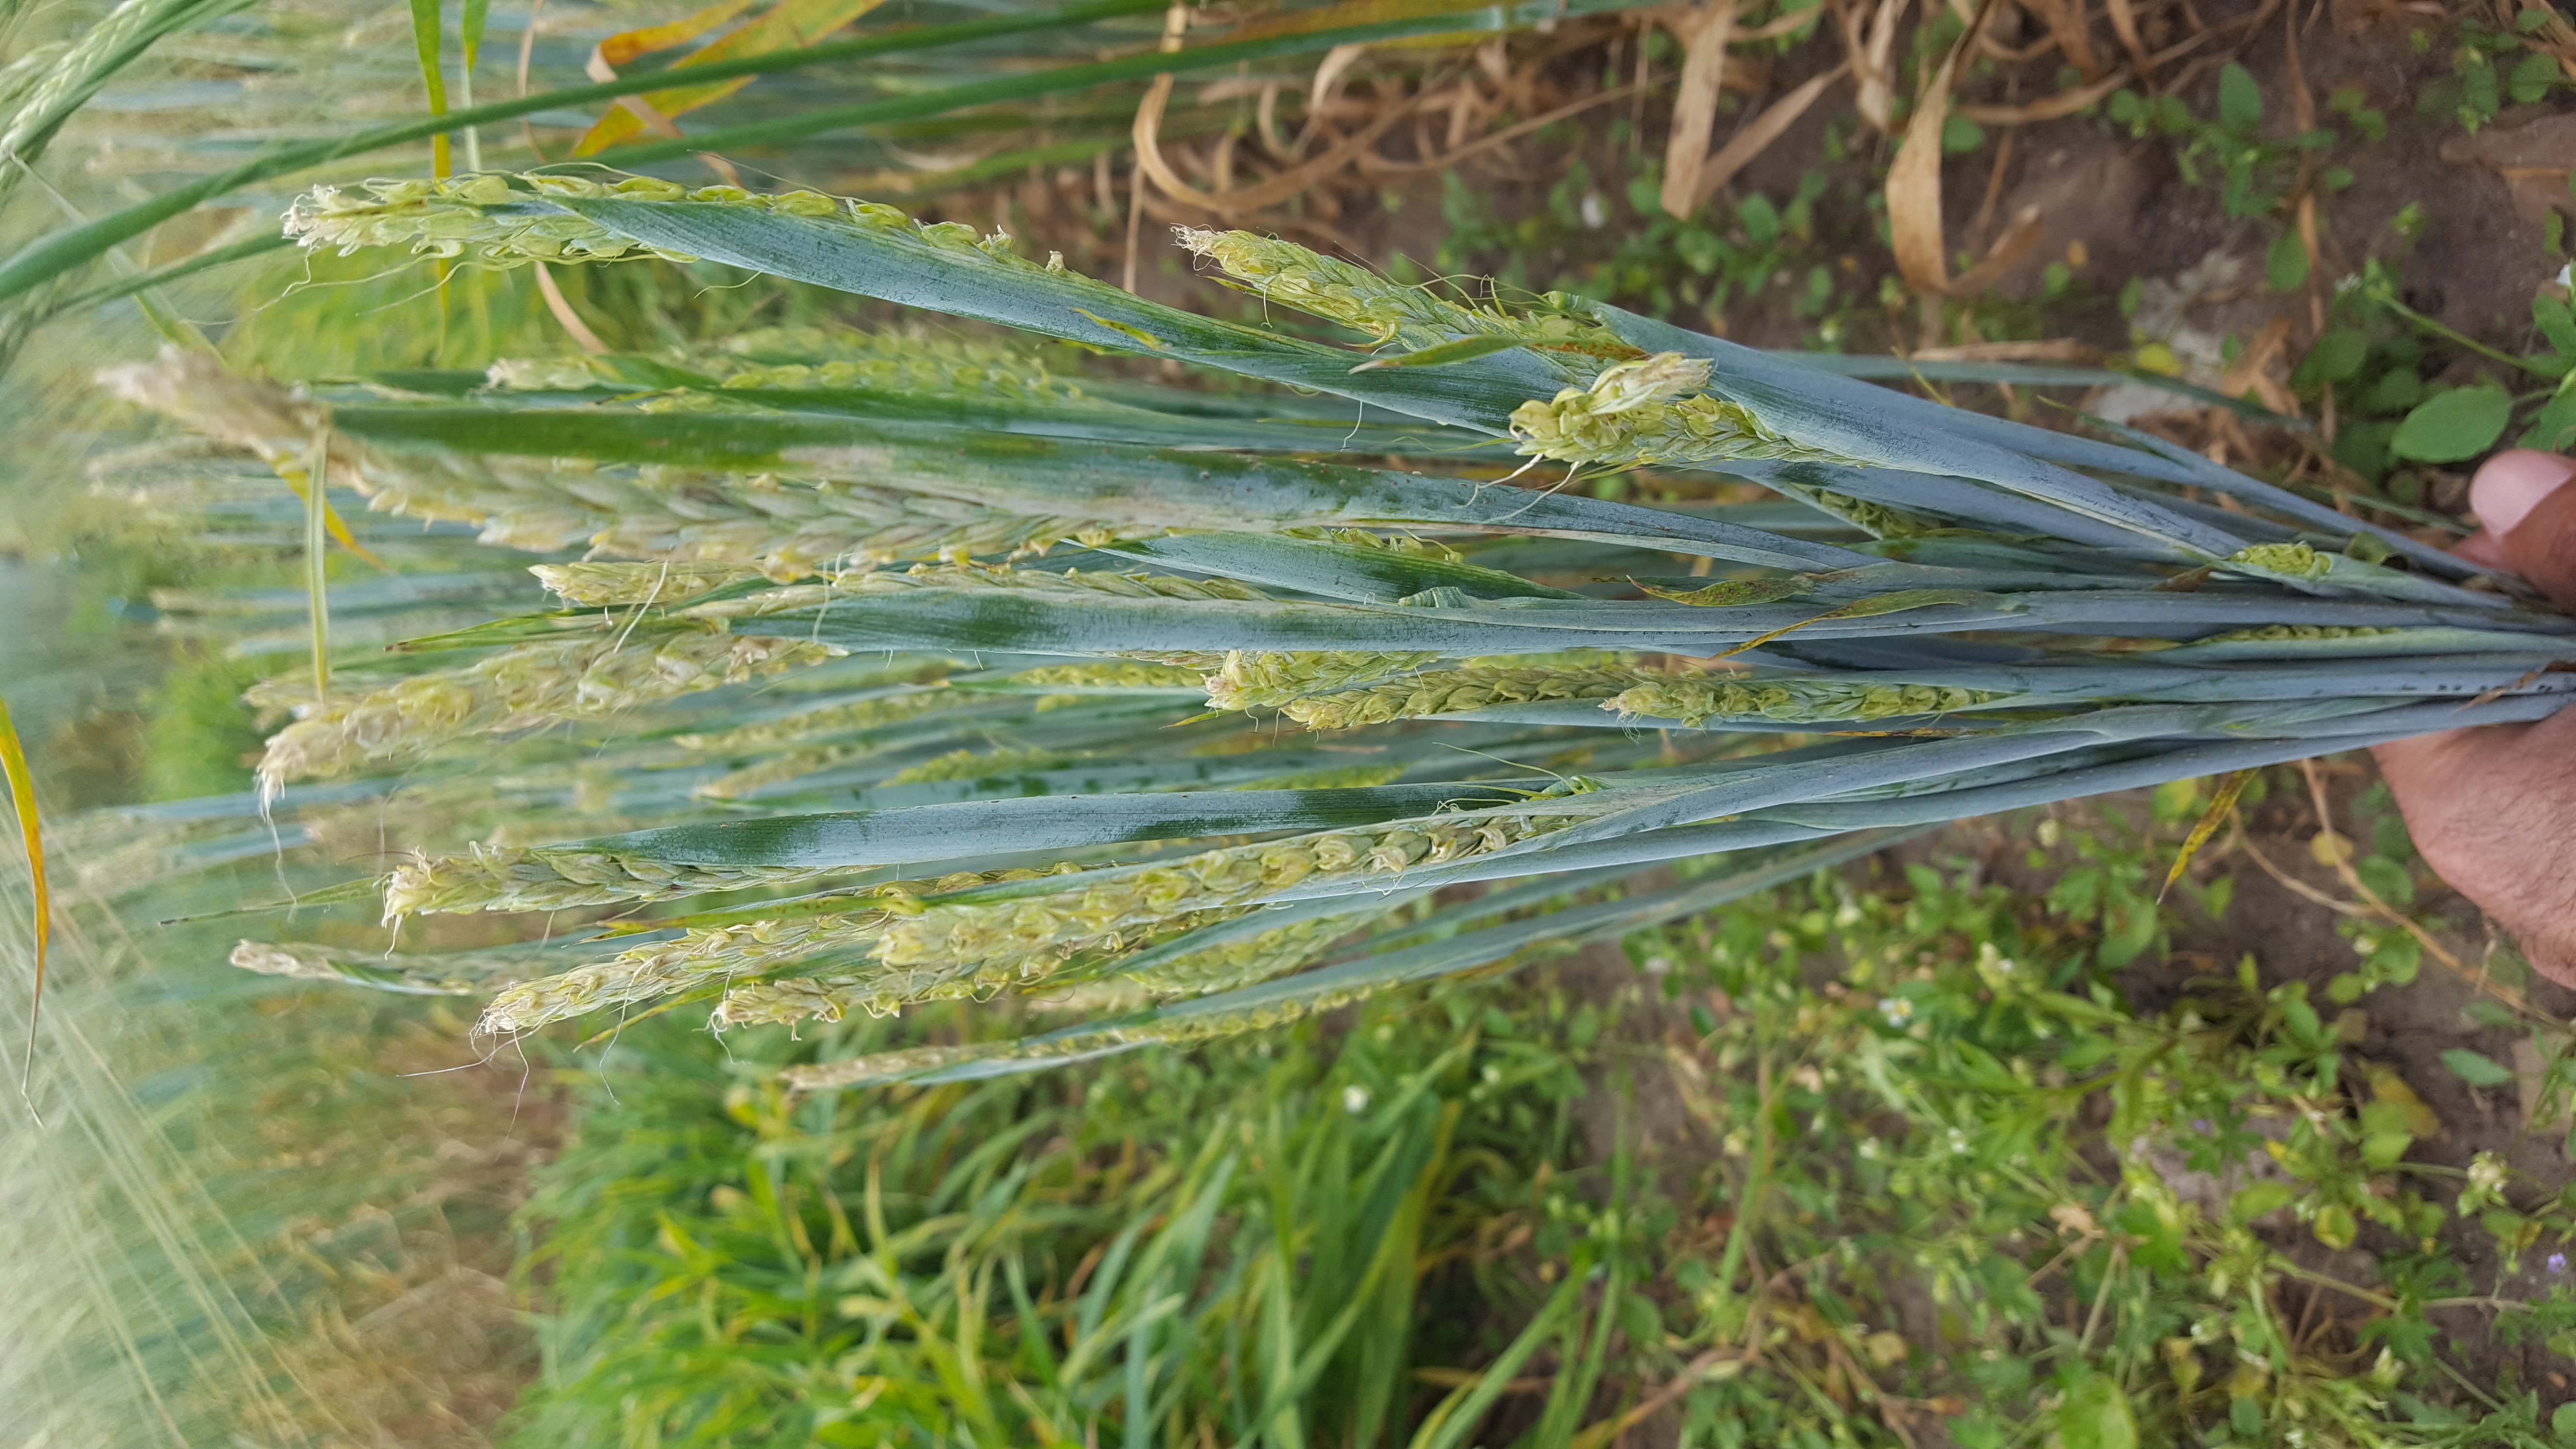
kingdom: Plantae
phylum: Tracheophyta
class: Liliopsida
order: Poales
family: Poaceae
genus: Hordeum
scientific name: Hordeum vulgare
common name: Common barley
